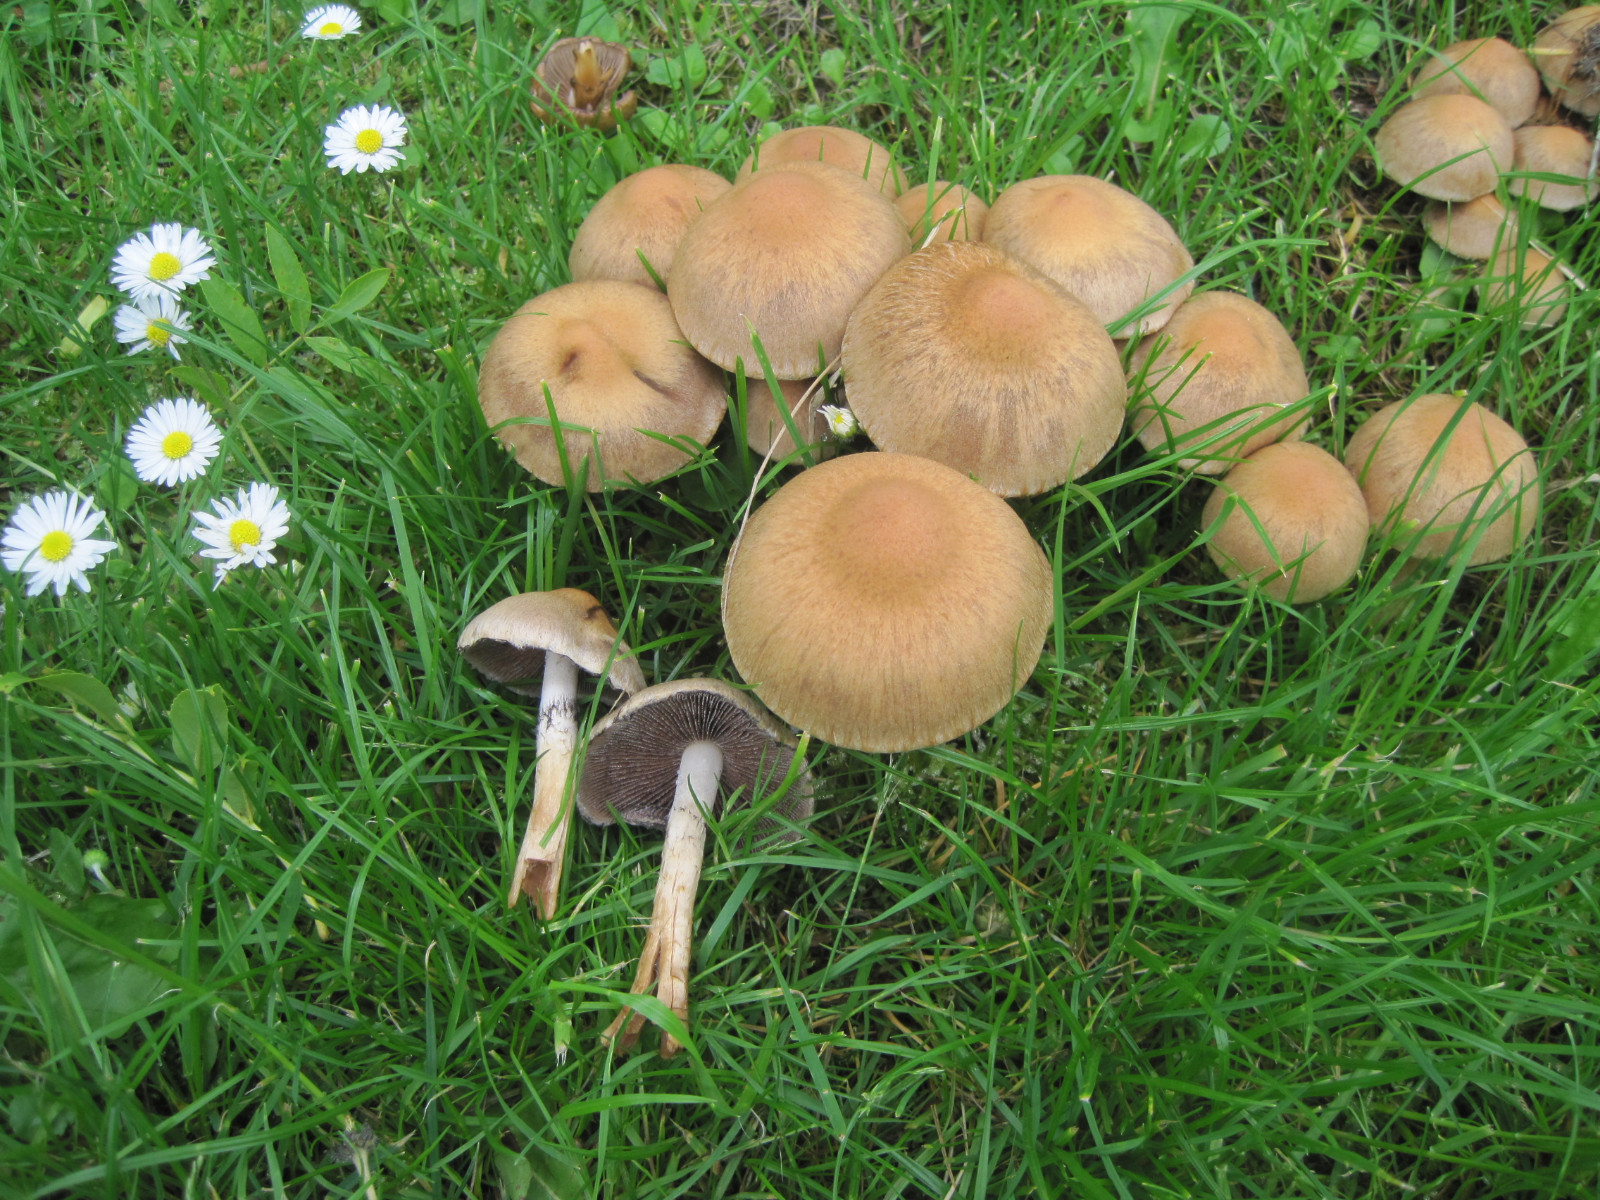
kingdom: Fungi
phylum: Basidiomycota
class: Agaricomycetes
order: Agaricales
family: Psathyrellaceae
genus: Lacrymaria
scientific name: Lacrymaria lacrymabunda
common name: grædende mørkhat
